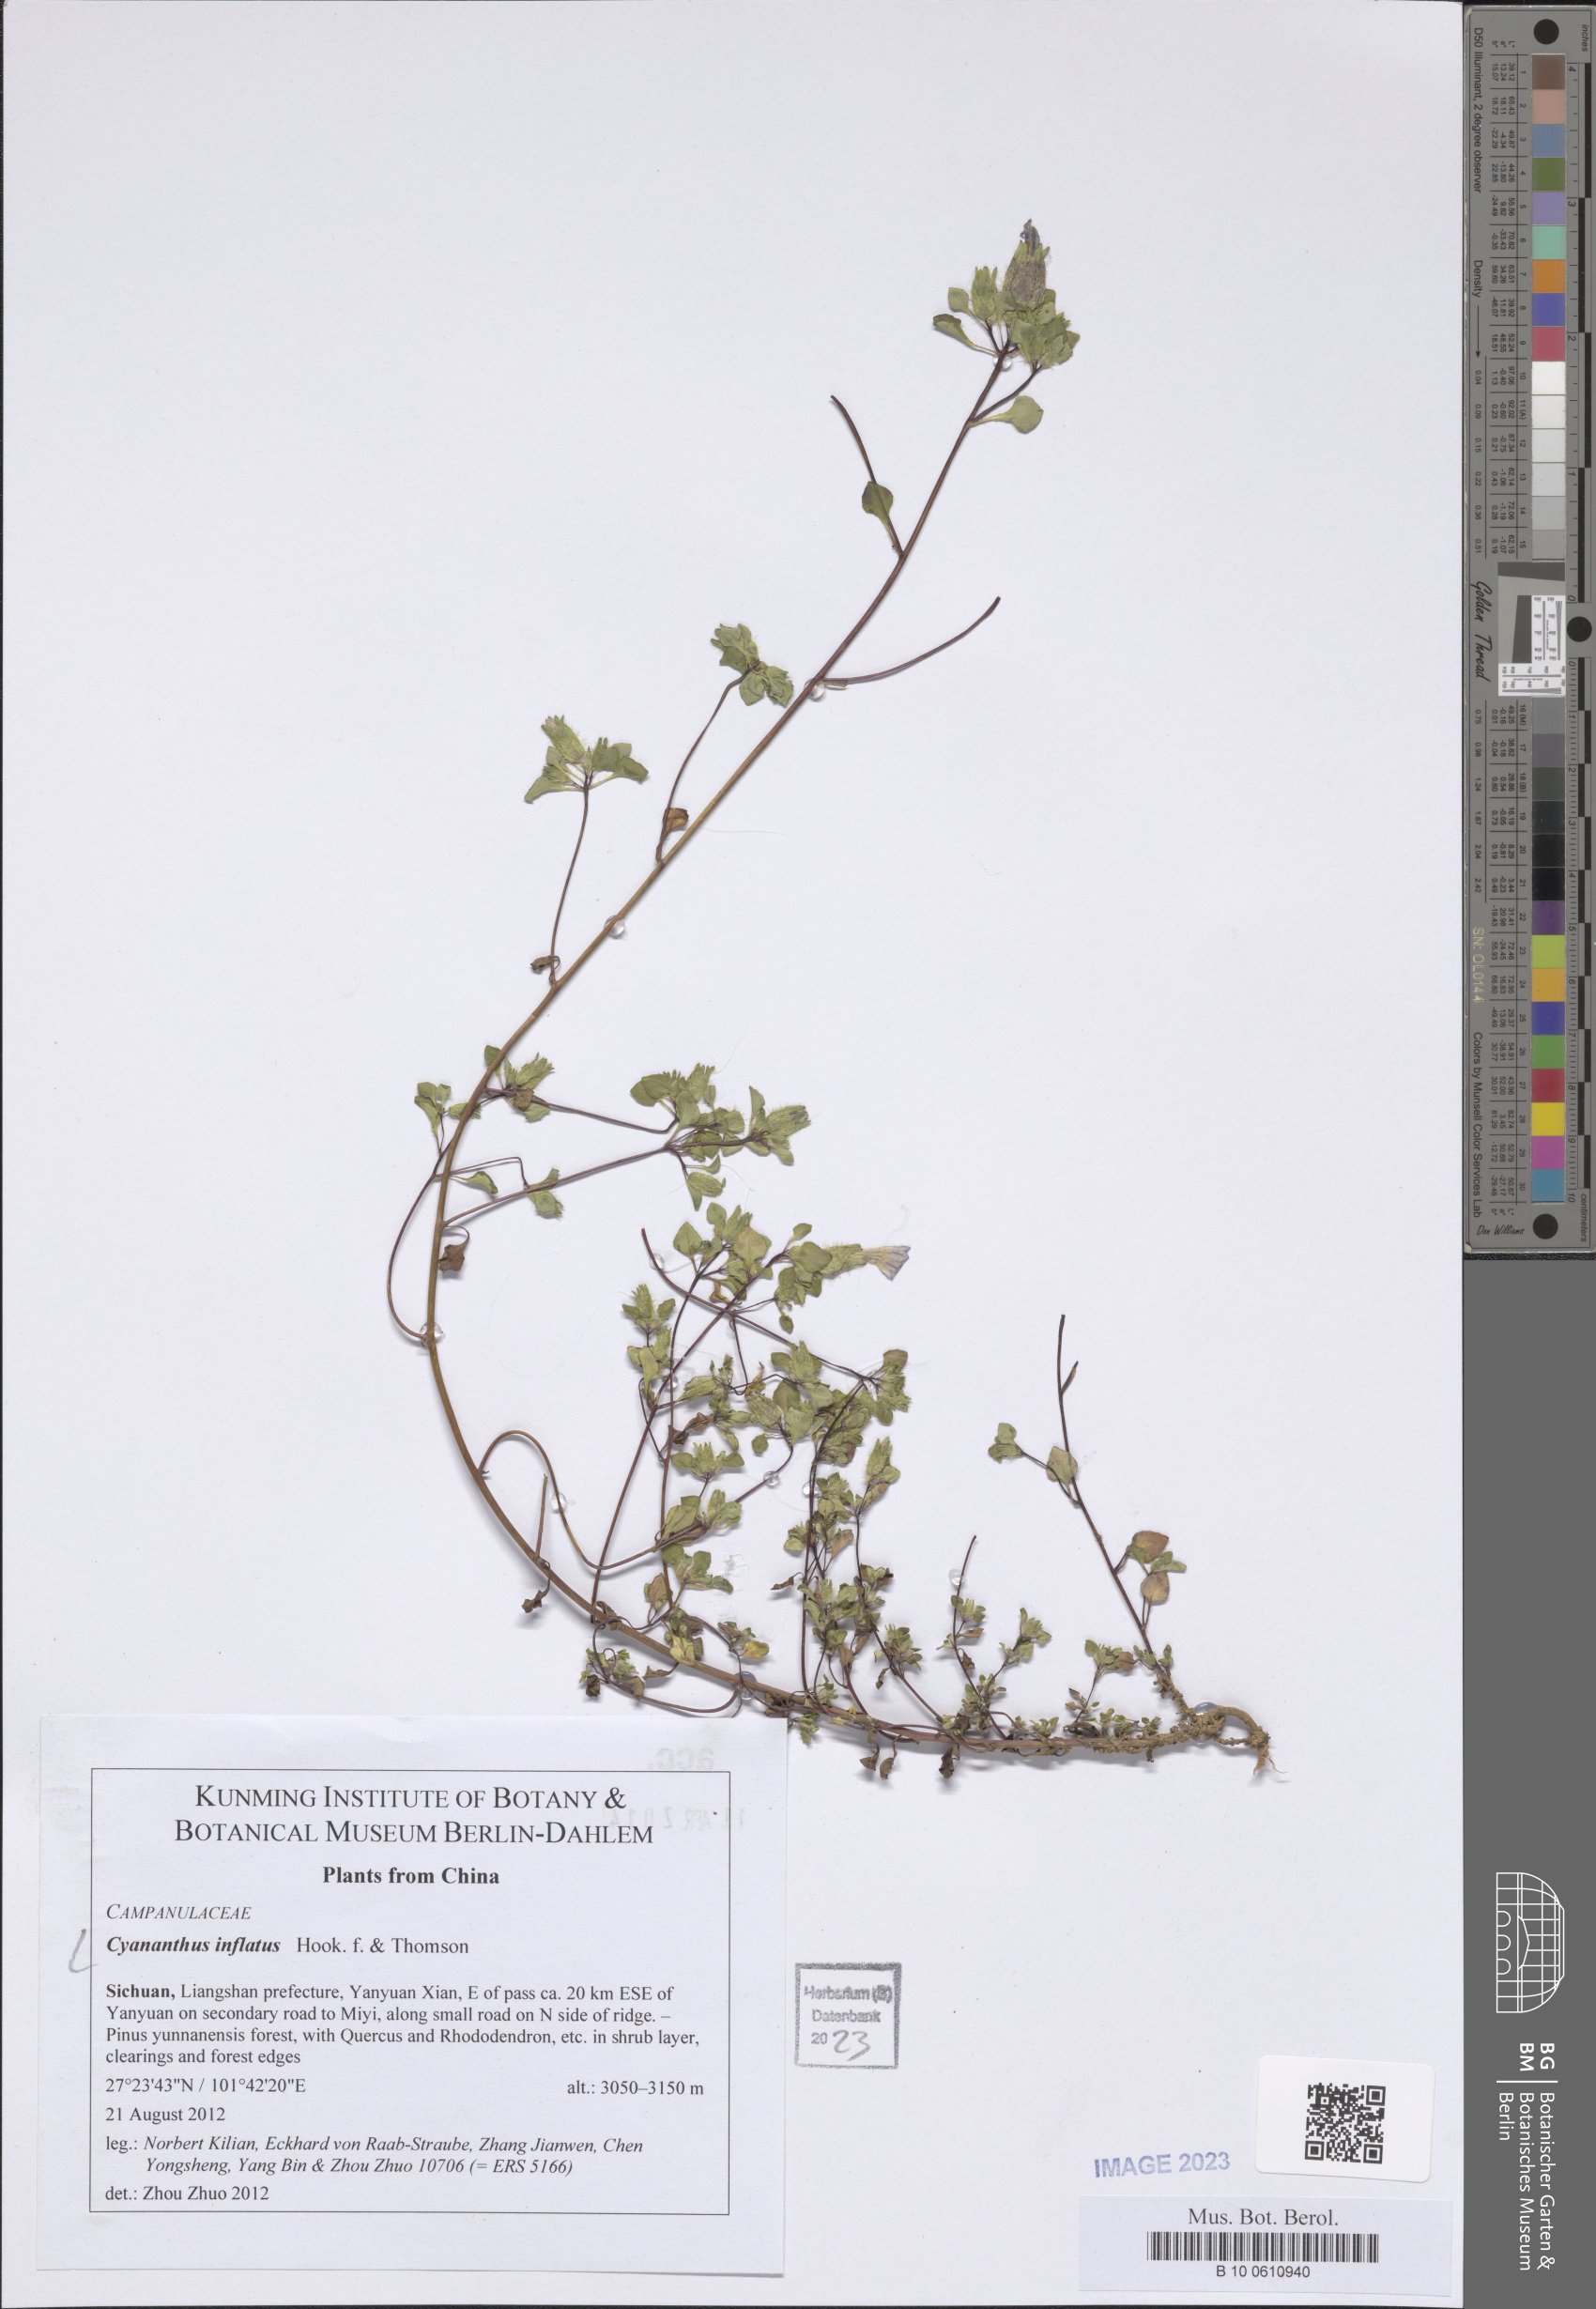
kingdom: Plantae
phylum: Tracheophyta
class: Magnoliopsida
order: Asterales
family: Campanulaceae
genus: Cyananthus
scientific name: Cyananthus inflatus
